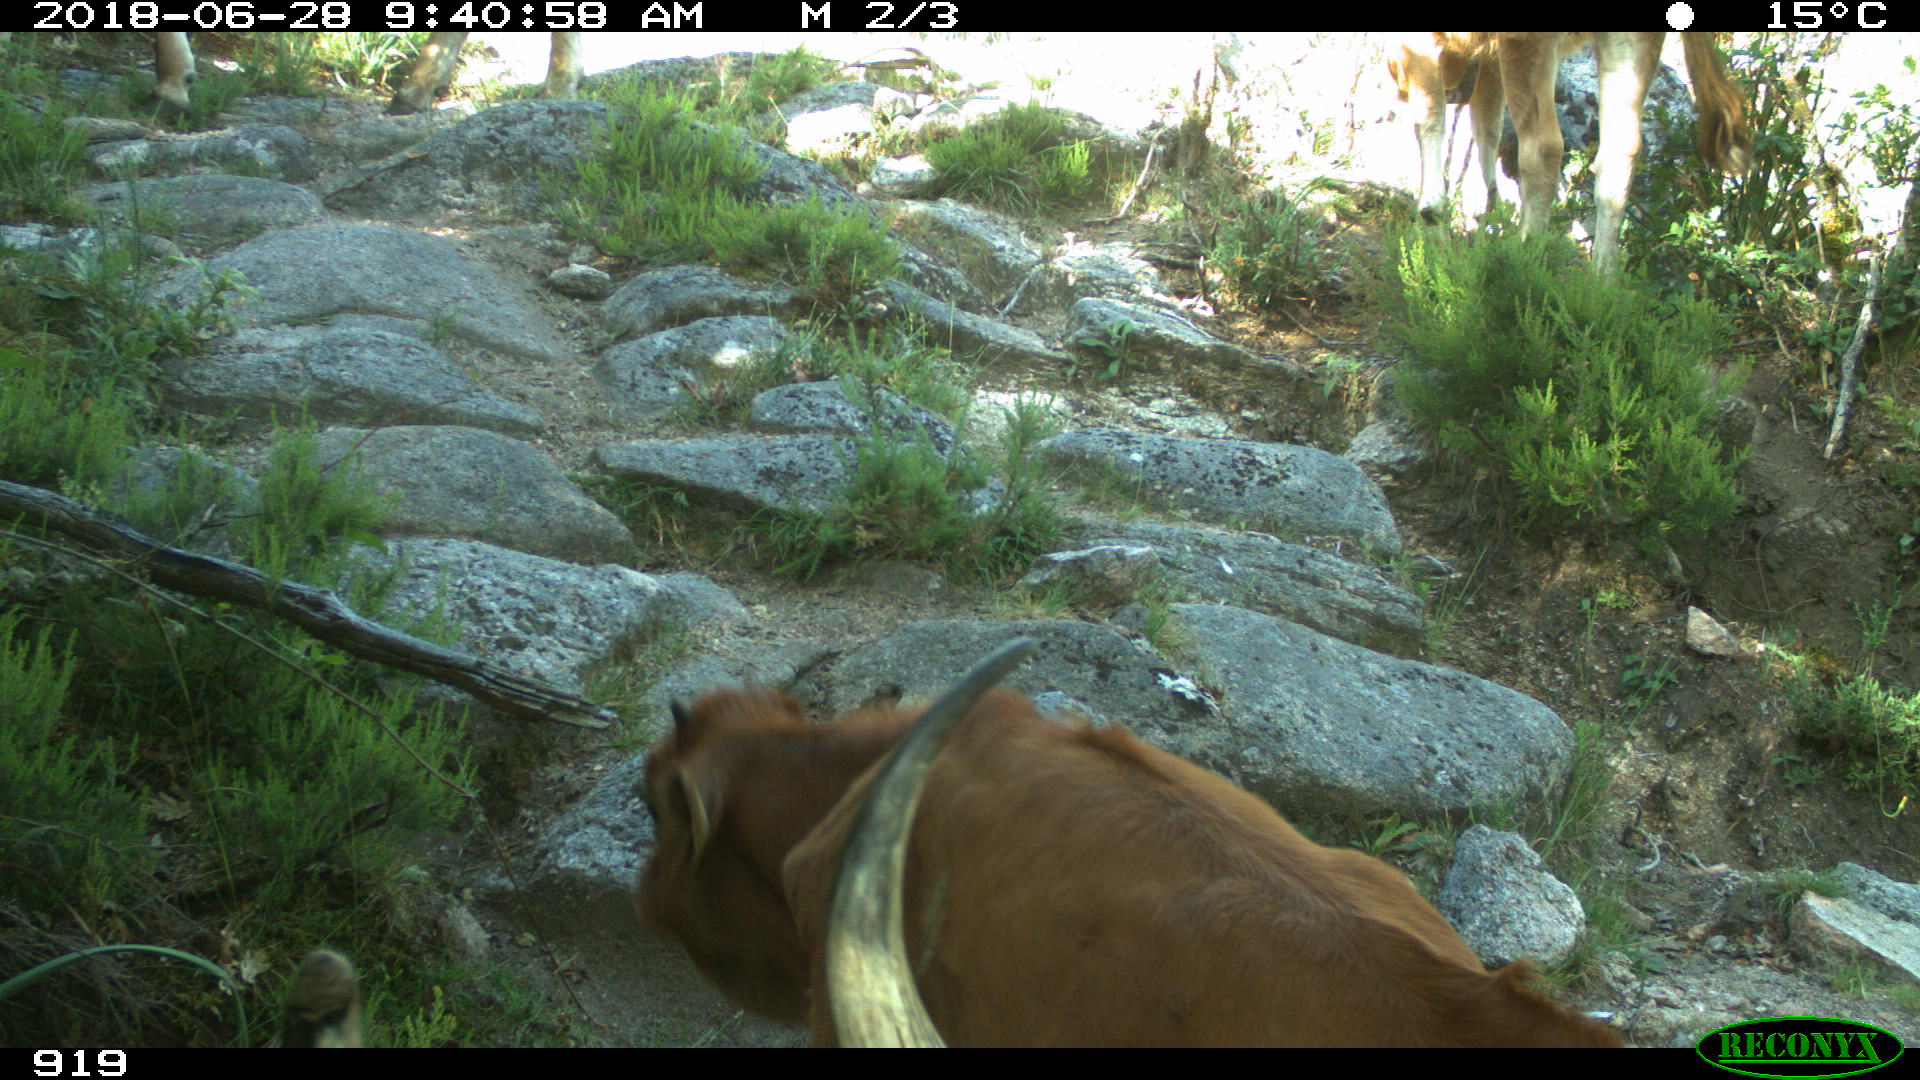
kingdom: Animalia
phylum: Chordata
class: Mammalia
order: Artiodactyla
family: Bovidae
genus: Bos
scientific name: Bos taurus
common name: Domesticated cattle
